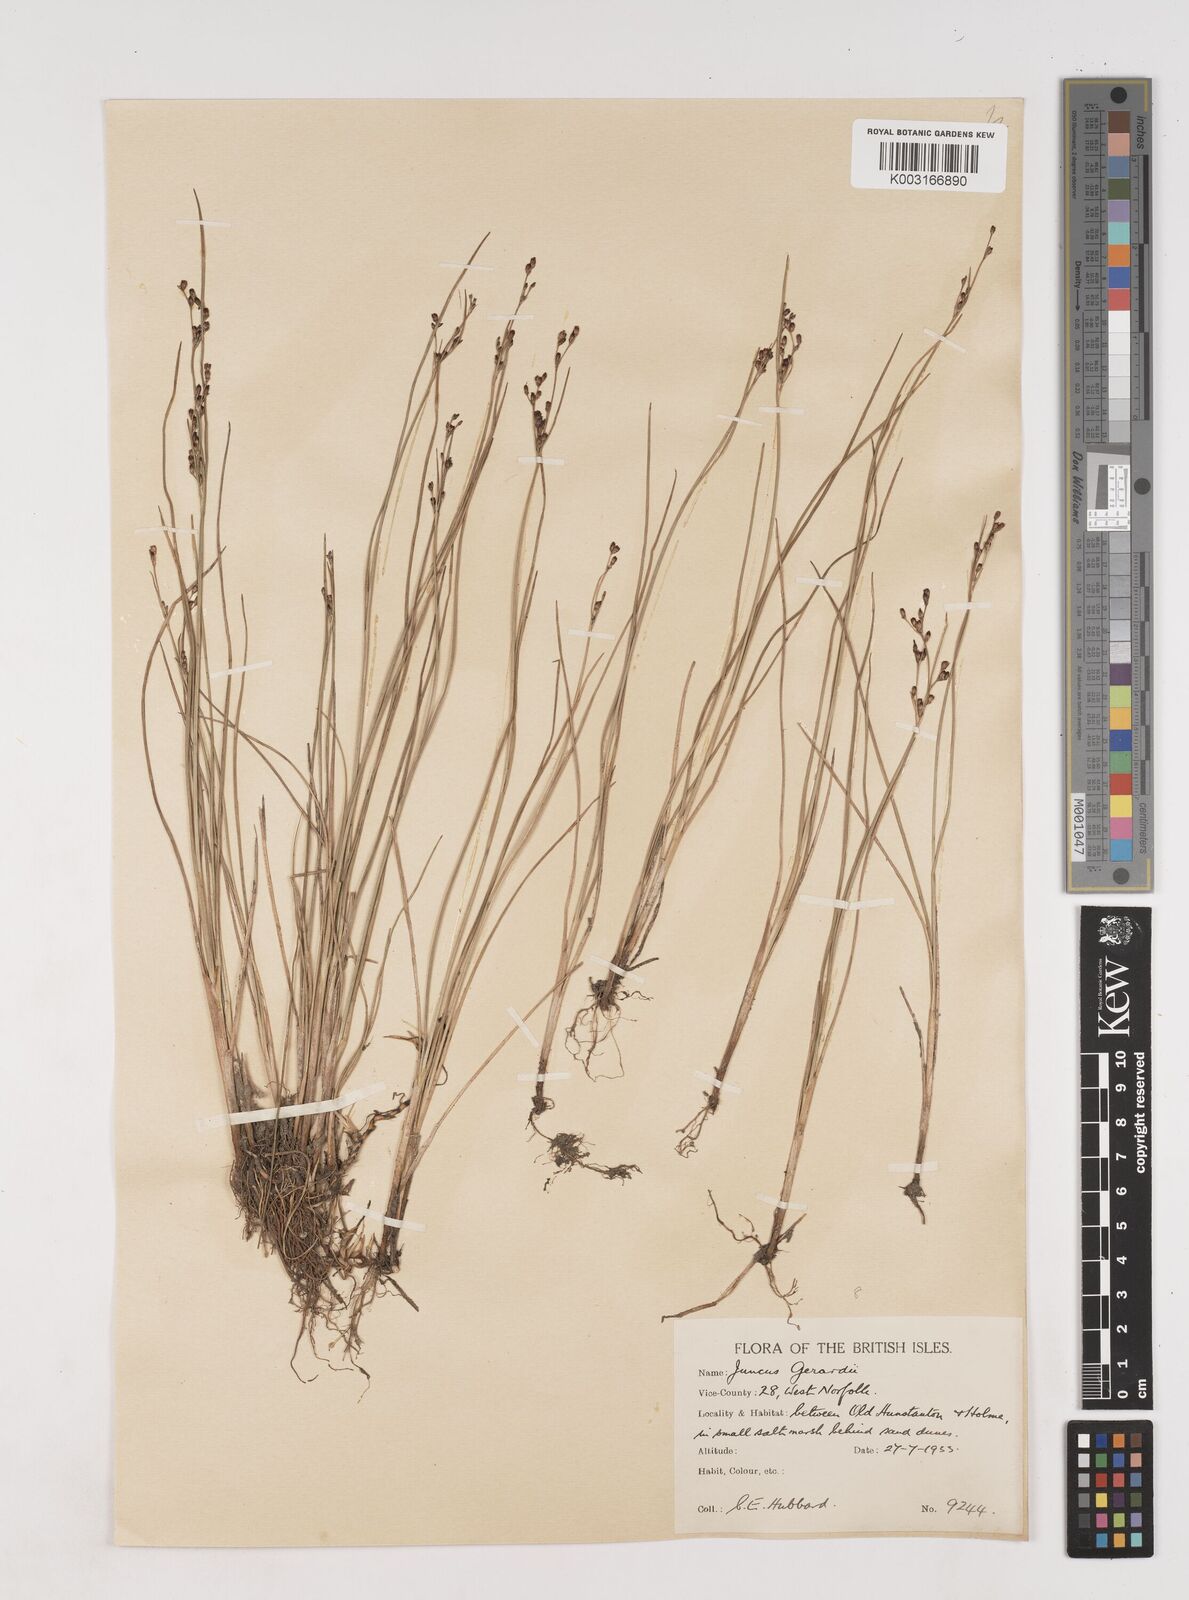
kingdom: Plantae
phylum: Tracheophyta
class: Liliopsida
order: Poales
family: Juncaceae
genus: Juncus
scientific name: Juncus gerardi
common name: Saltmarsh rush
